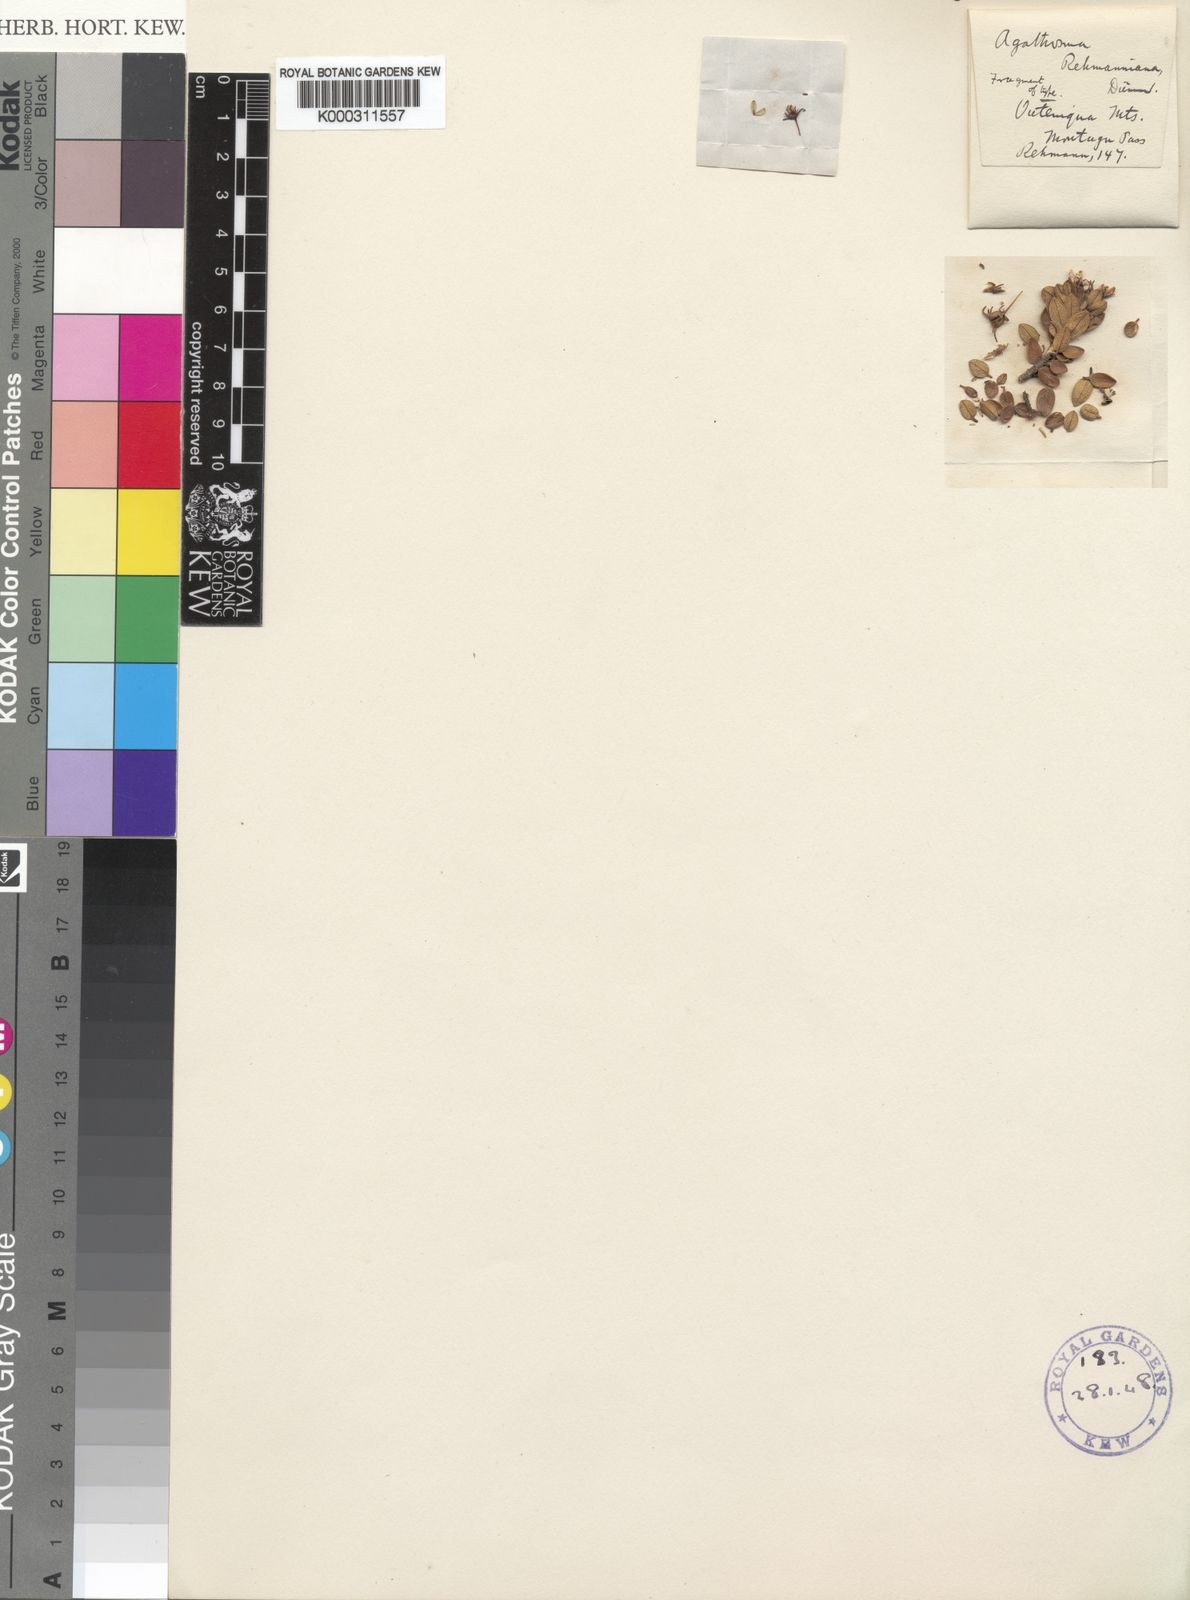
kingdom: Plantae
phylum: Tracheophyta
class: Magnoliopsida
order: Sapindales
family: Rutaceae
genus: Agathosma
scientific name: Agathosma
